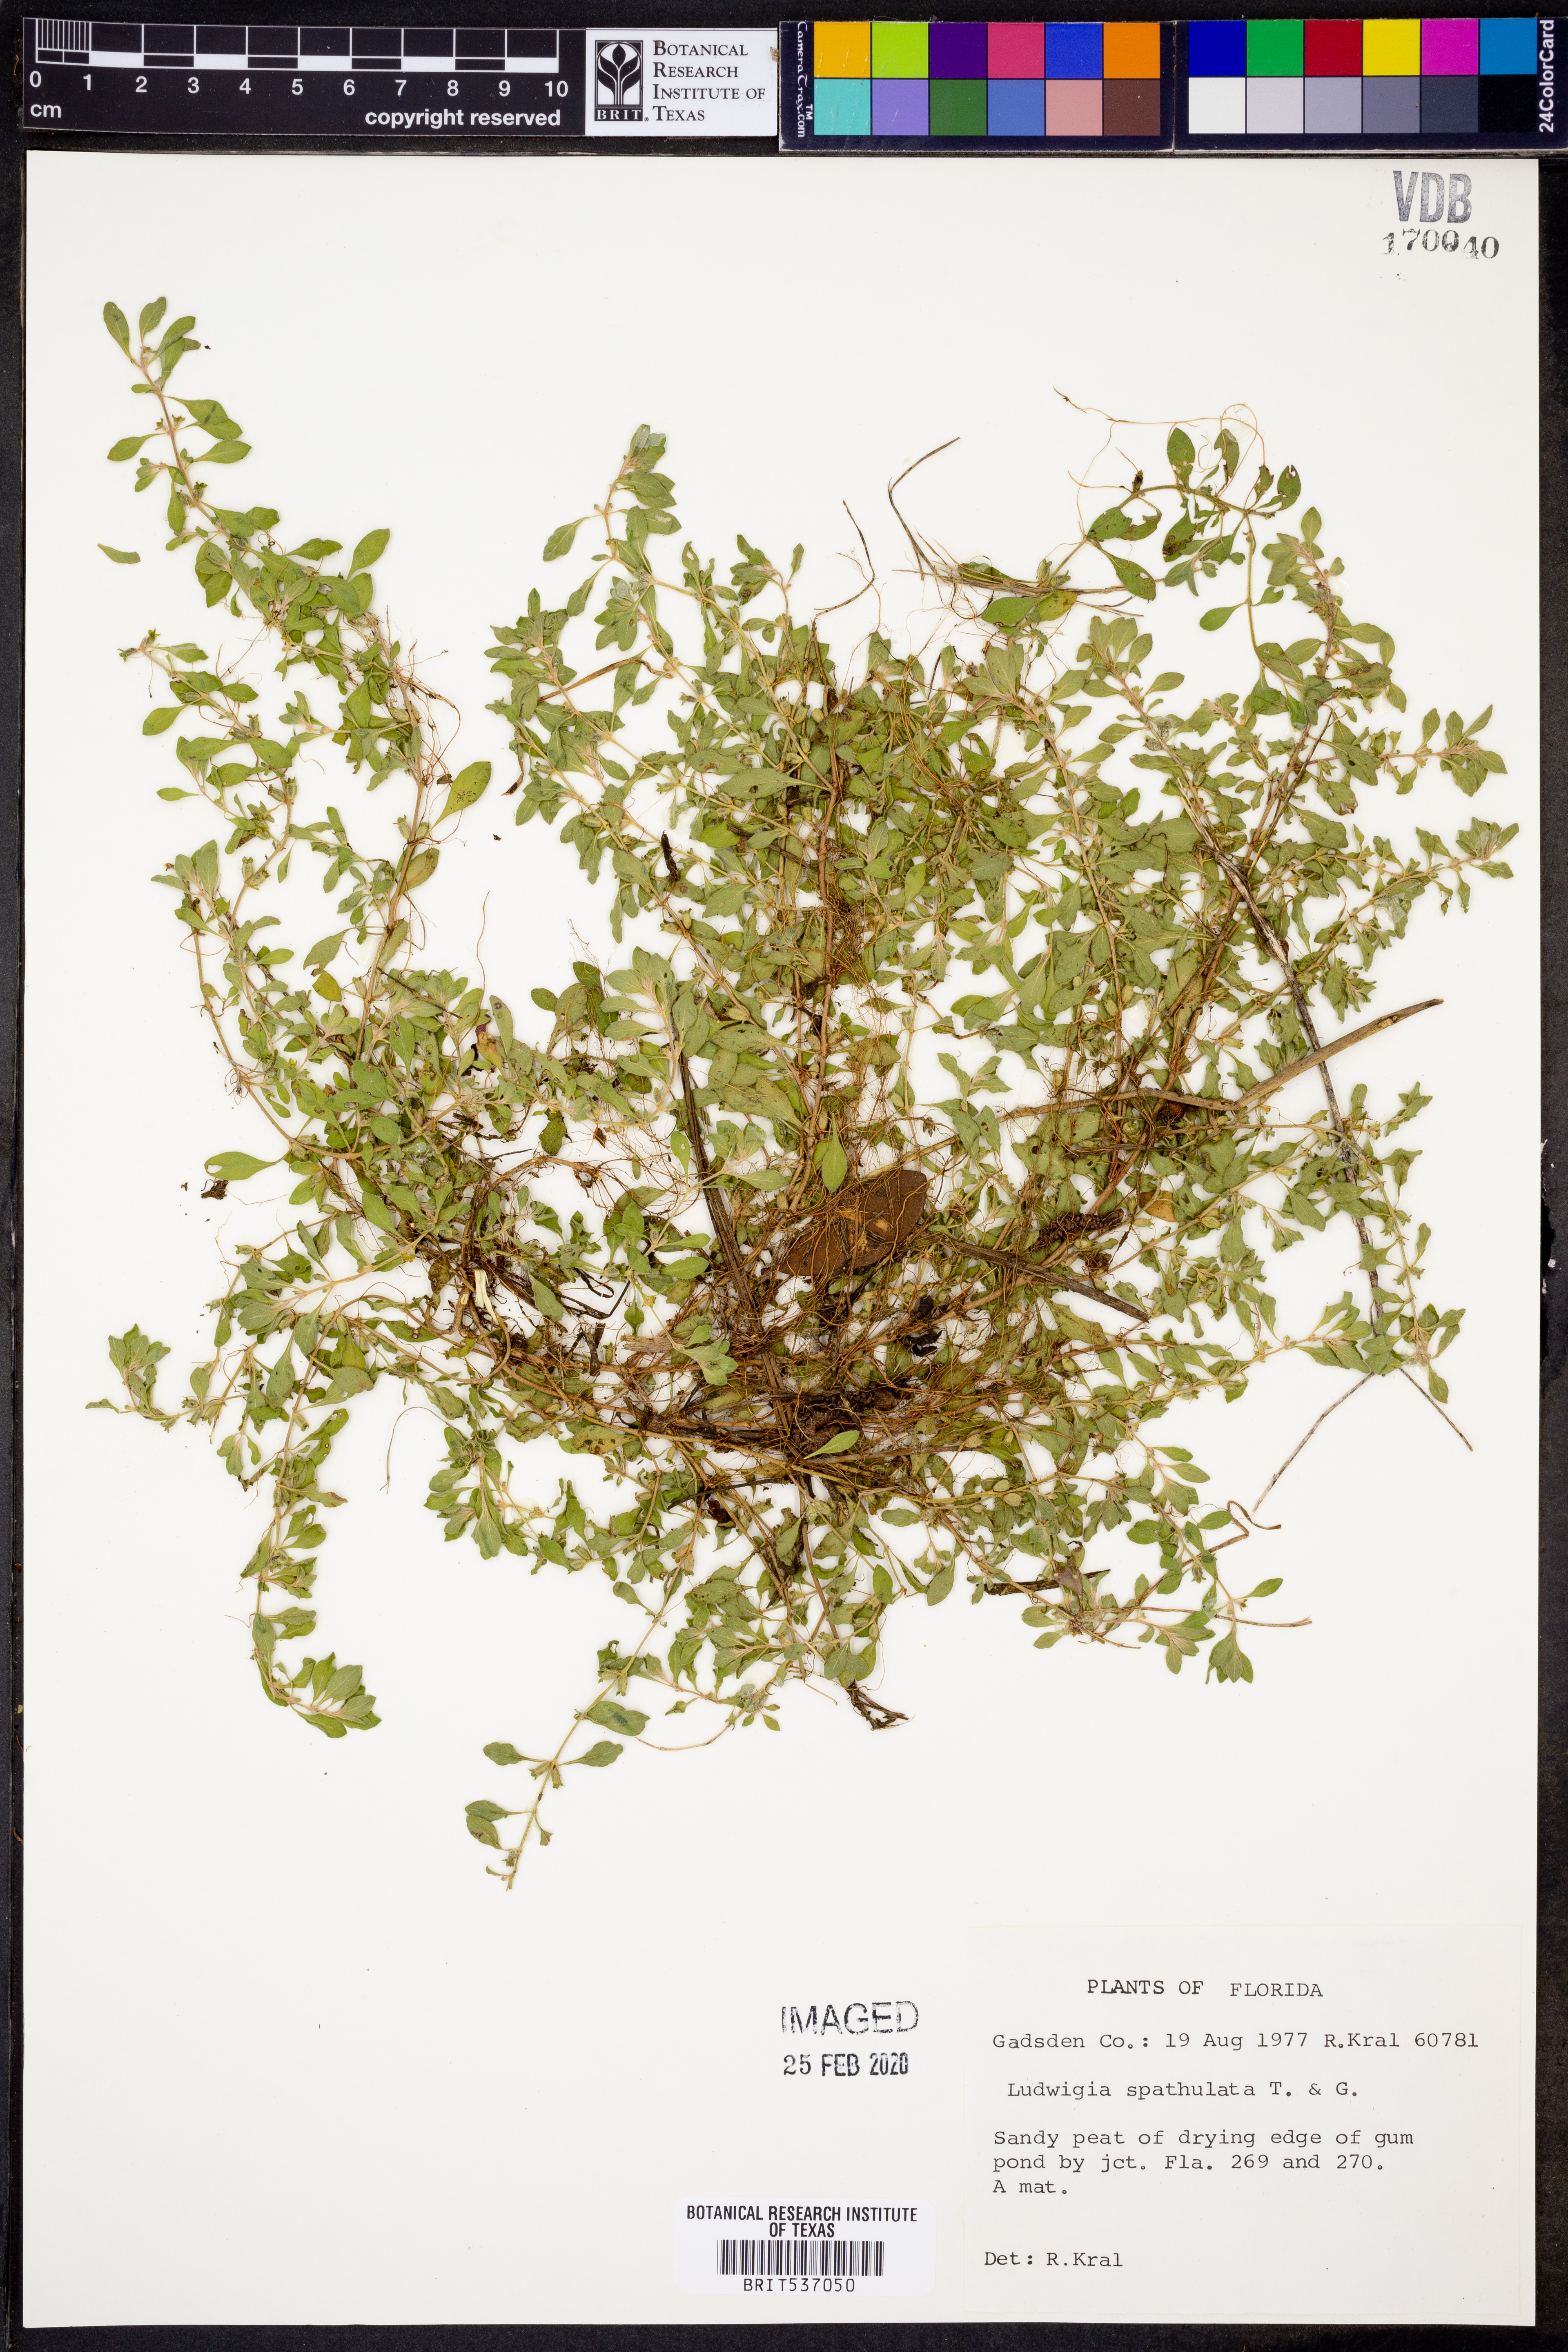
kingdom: Plantae
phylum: Tracheophyta
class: Magnoliopsida
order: Myrtales
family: Onagraceae
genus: Ludwigia
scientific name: Ludwigia spathulata
